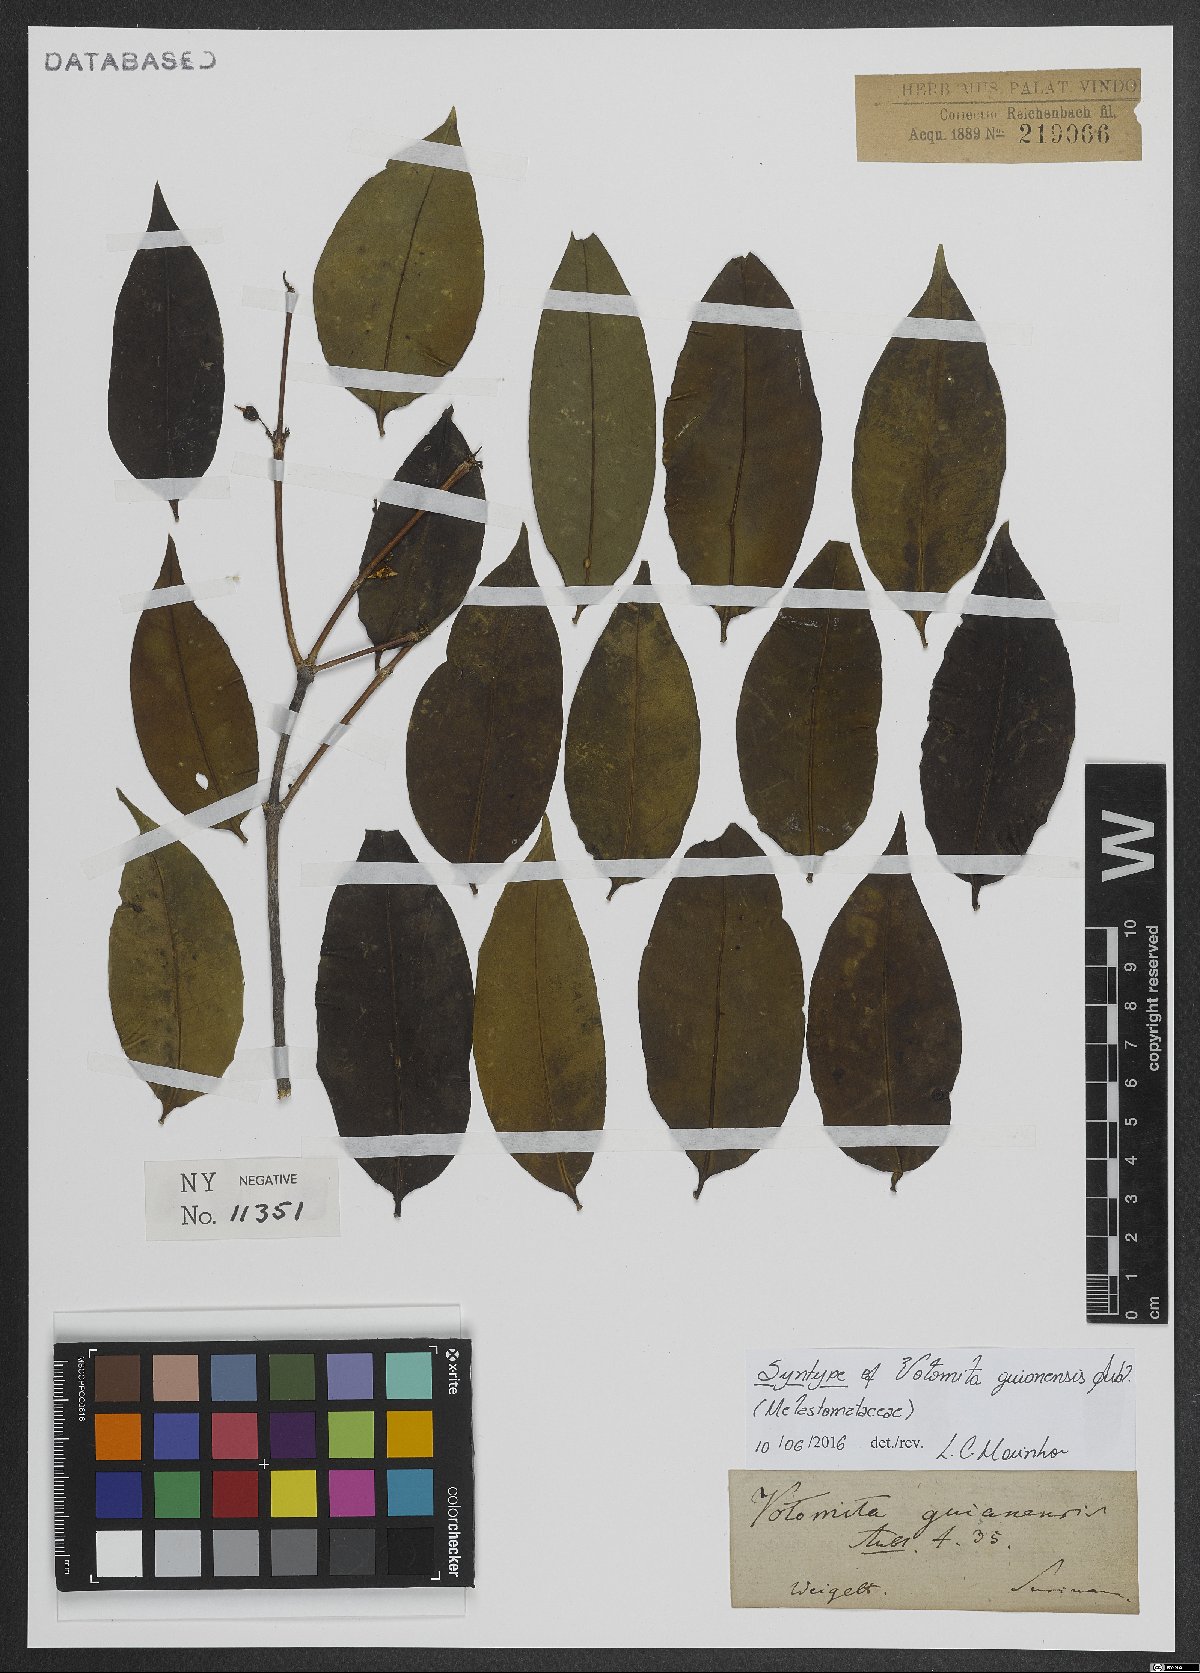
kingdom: Plantae
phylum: Tracheophyta
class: Magnoliopsida
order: Myrtales
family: Melastomataceae
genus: Votomita
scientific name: Votomita guianensis
